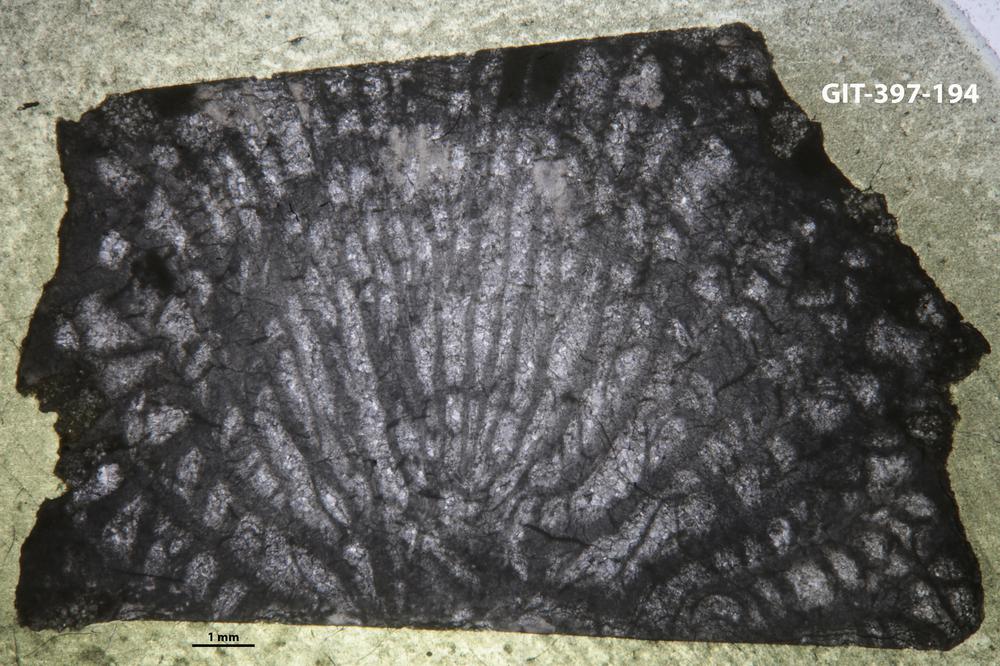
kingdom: Animalia
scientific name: Animalia
